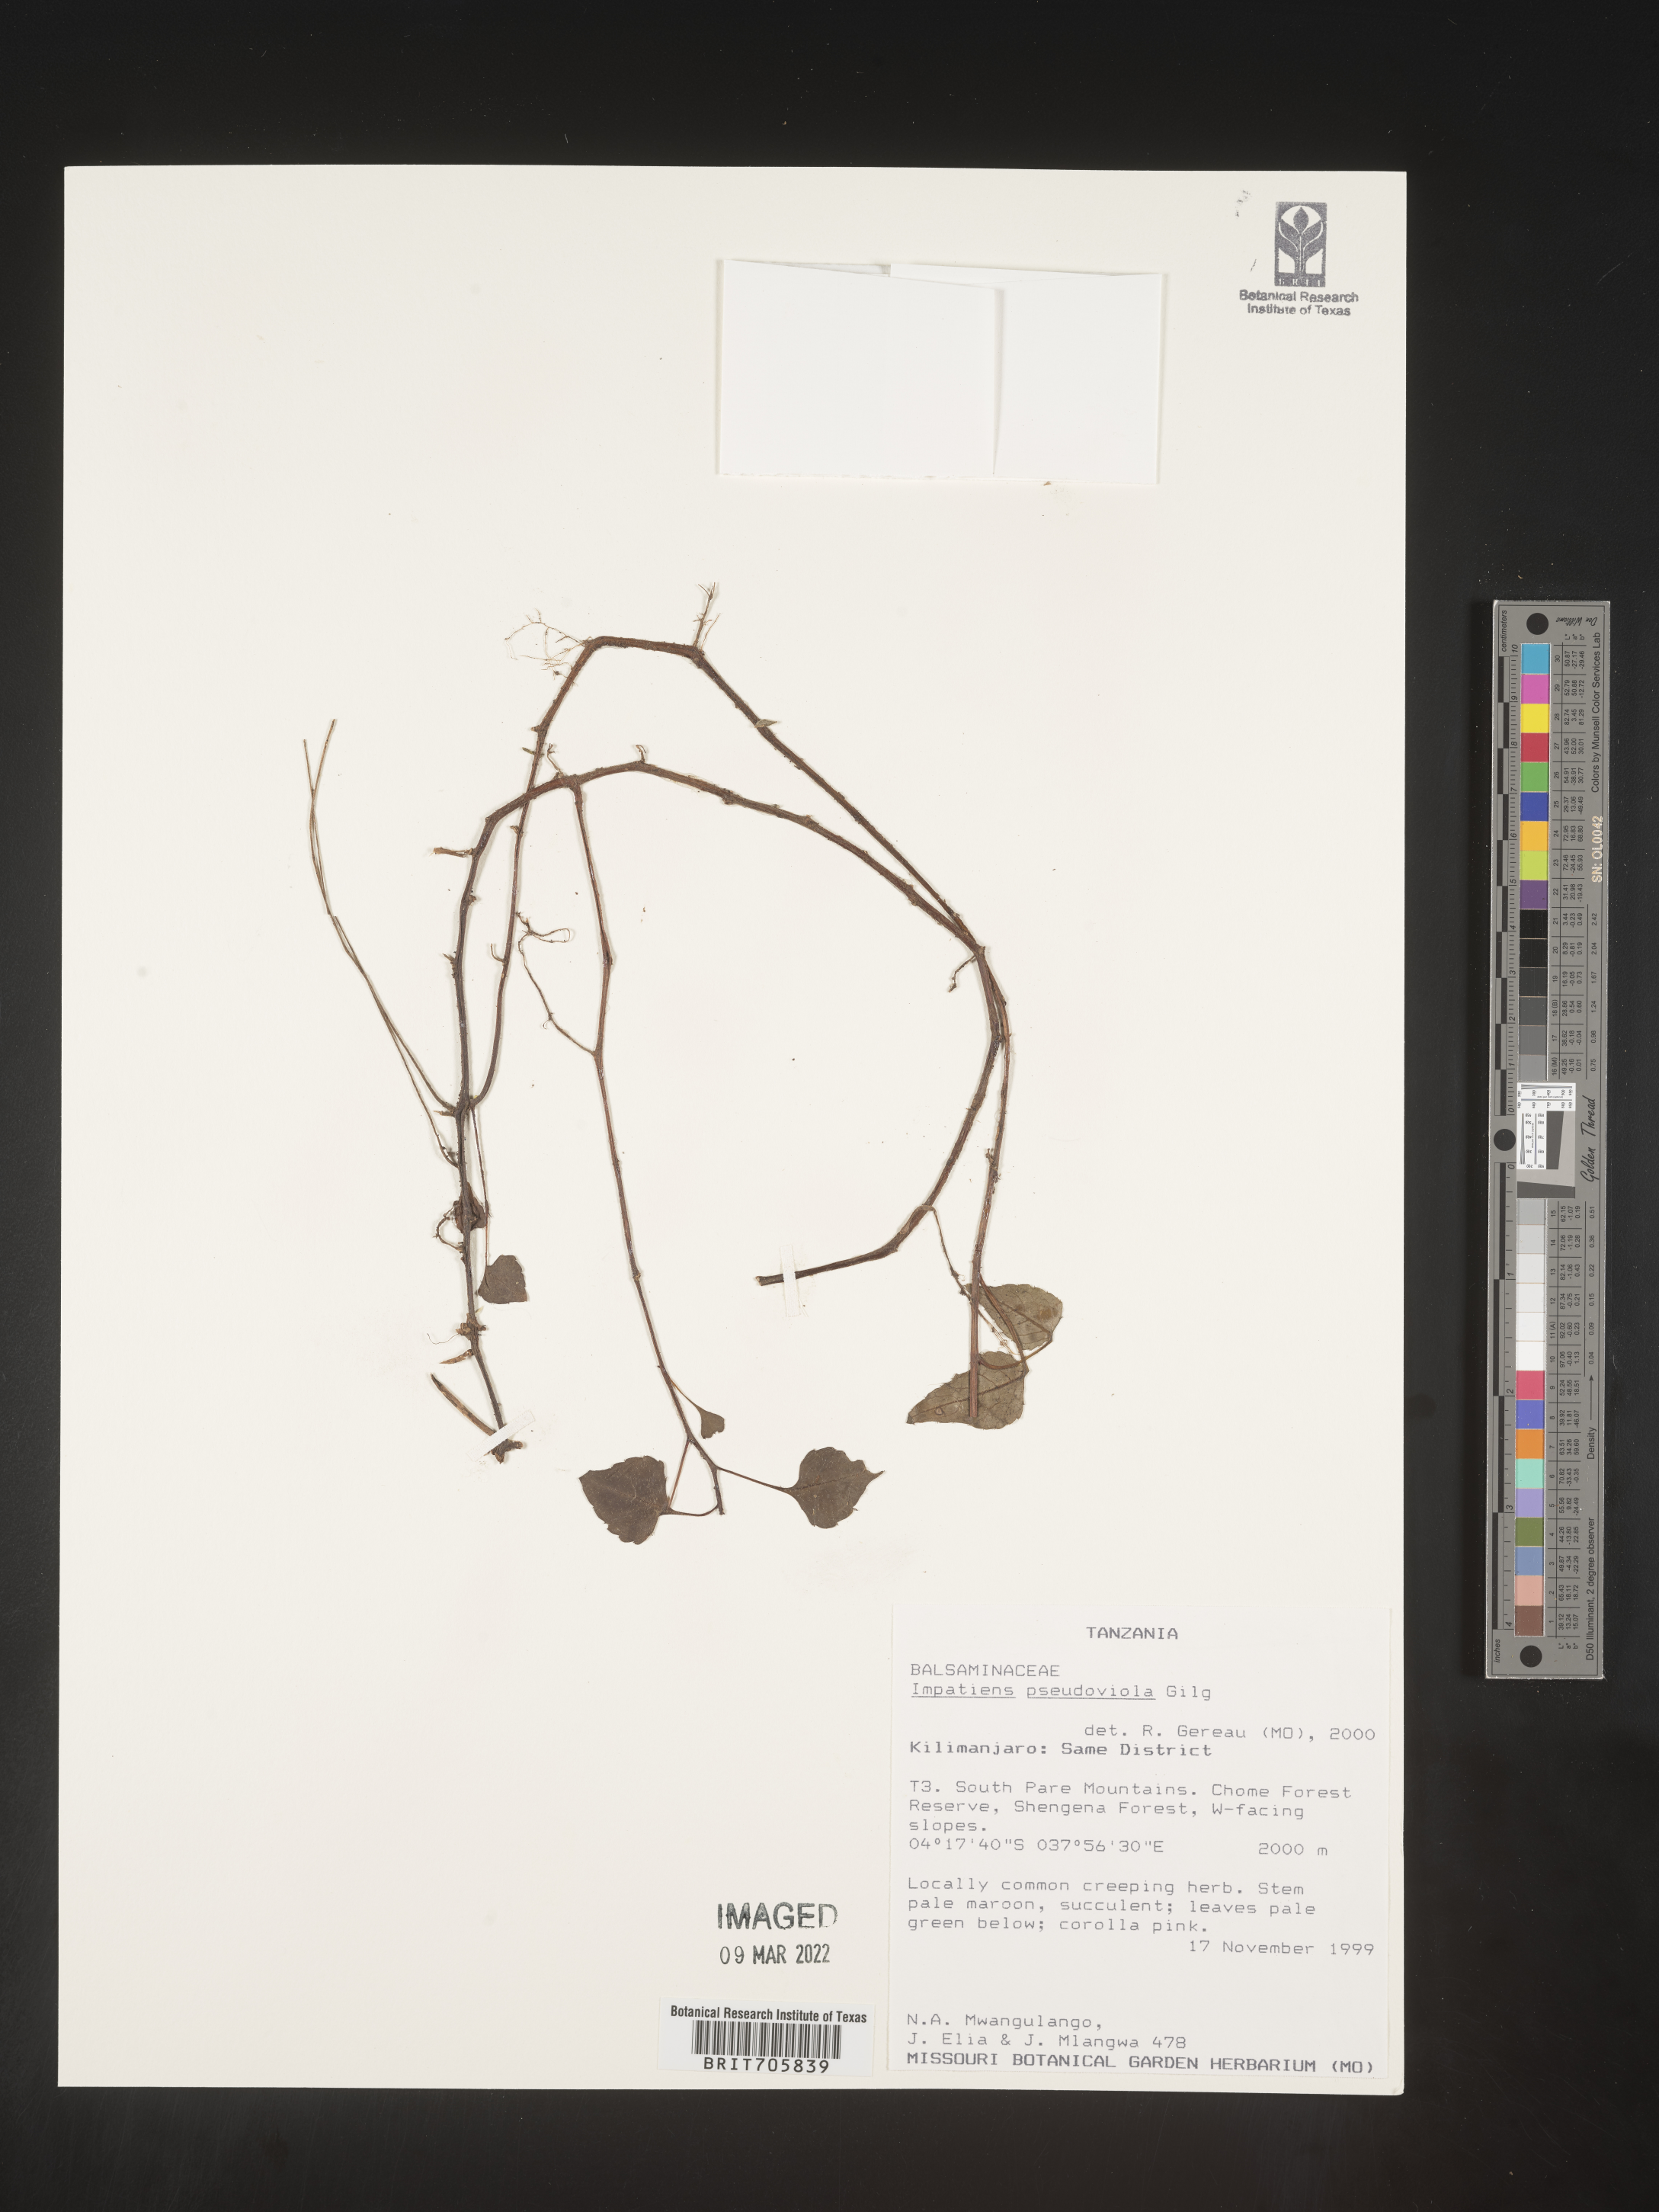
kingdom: Plantae
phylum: Tracheophyta
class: Magnoliopsida
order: Ericales
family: Balsaminaceae
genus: Impatiens
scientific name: Impatiens
